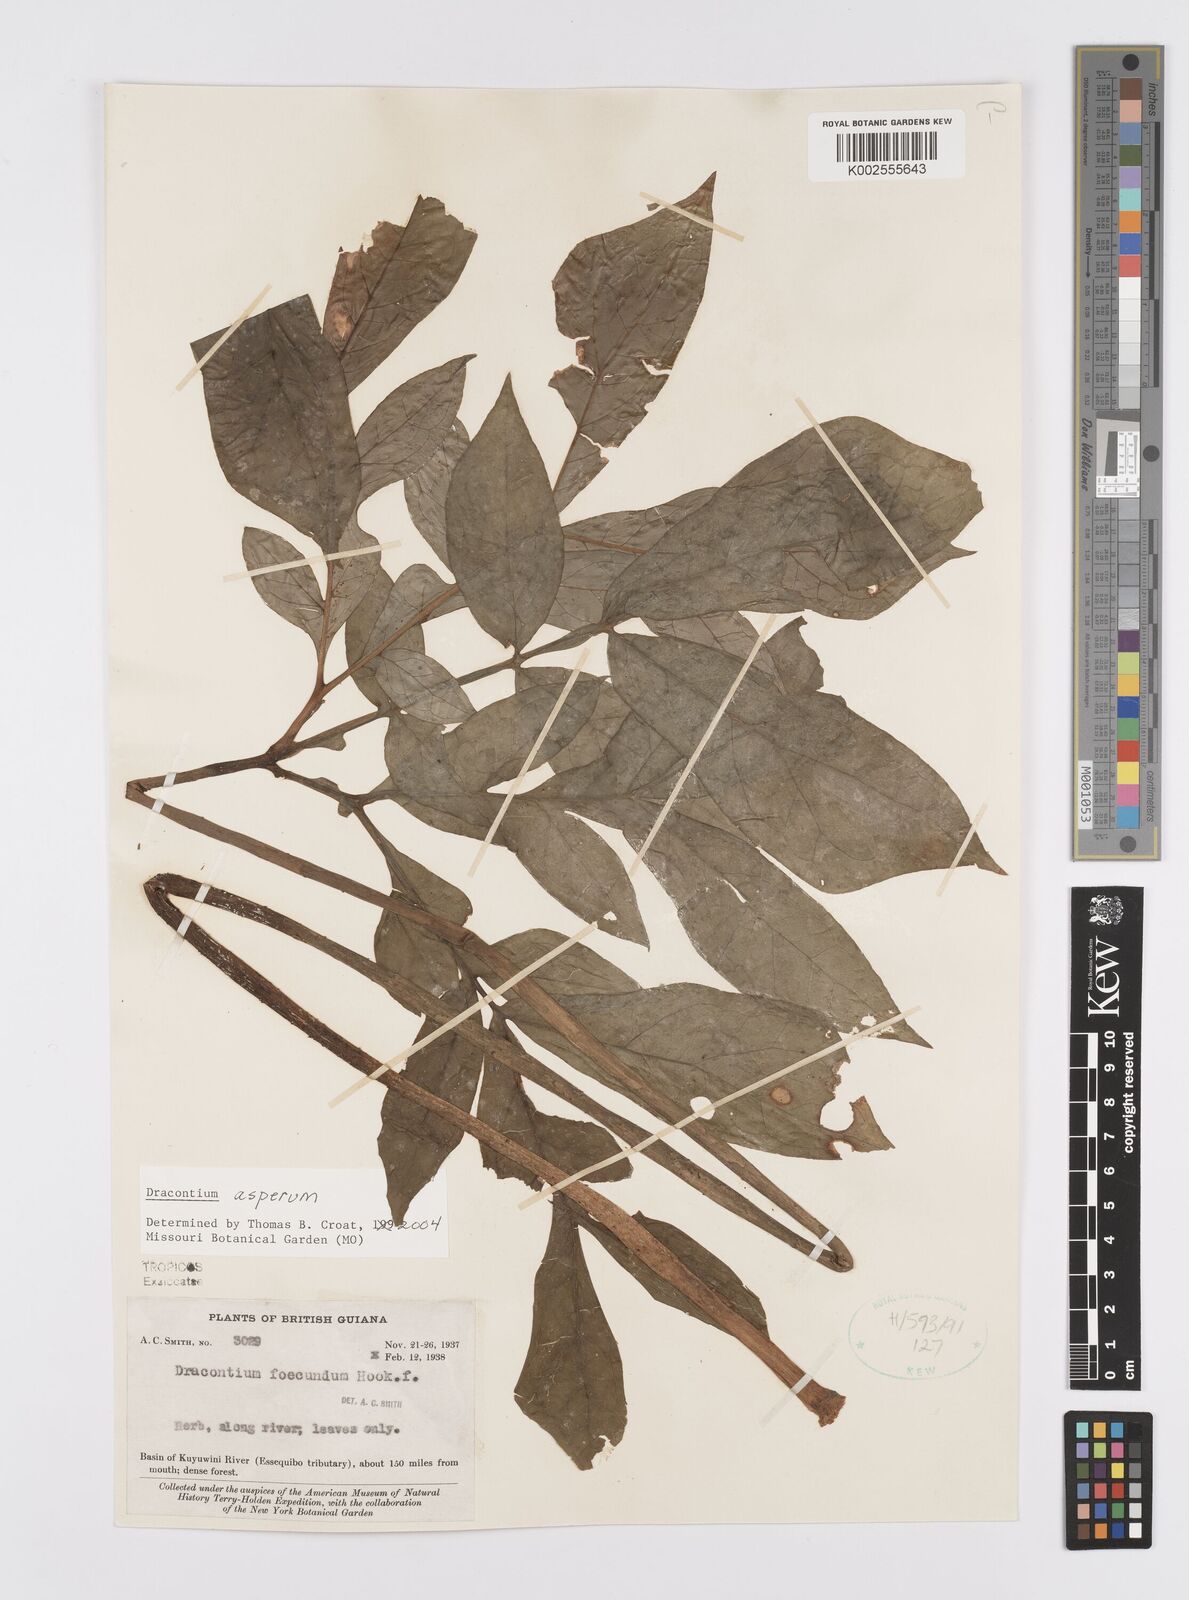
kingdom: Plantae
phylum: Tracheophyta
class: Liliopsida
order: Alismatales
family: Araceae
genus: Dracontium
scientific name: Dracontium asperum
